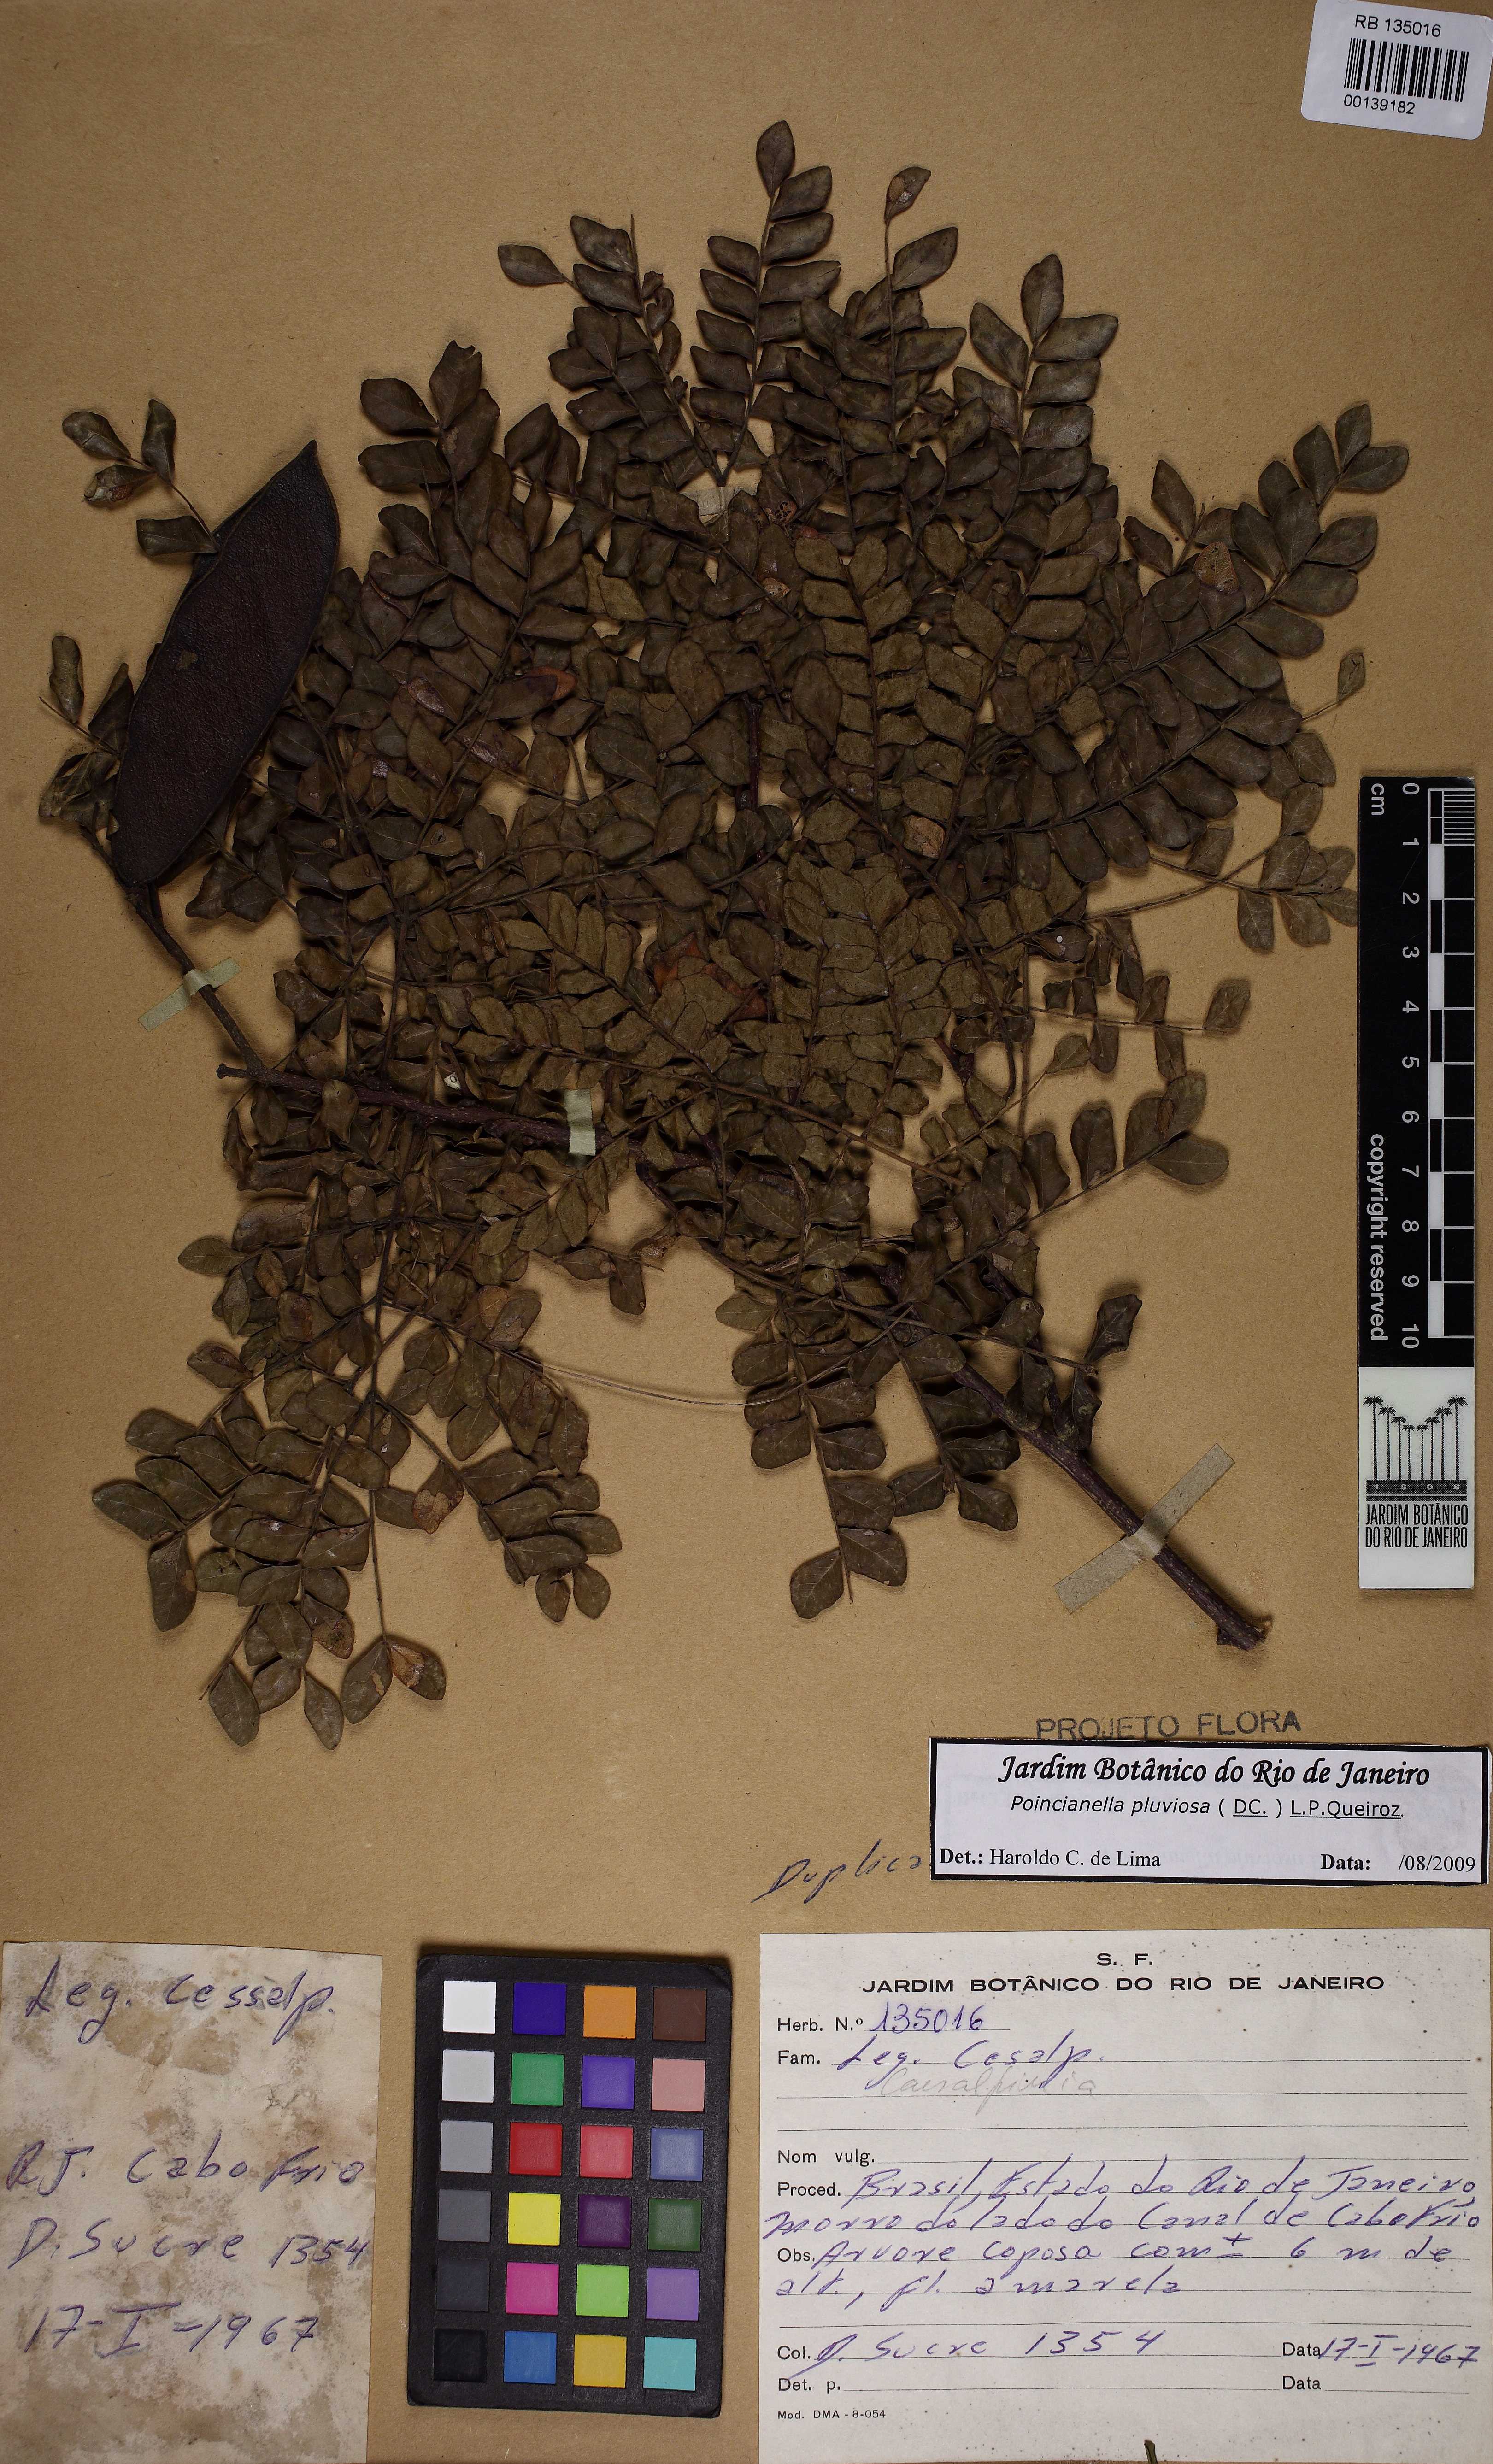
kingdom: Plantae
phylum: Tracheophyta
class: Magnoliopsida
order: Fabales
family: Fabaceae
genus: Cenostigma
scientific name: Cenostigma pluviosum
